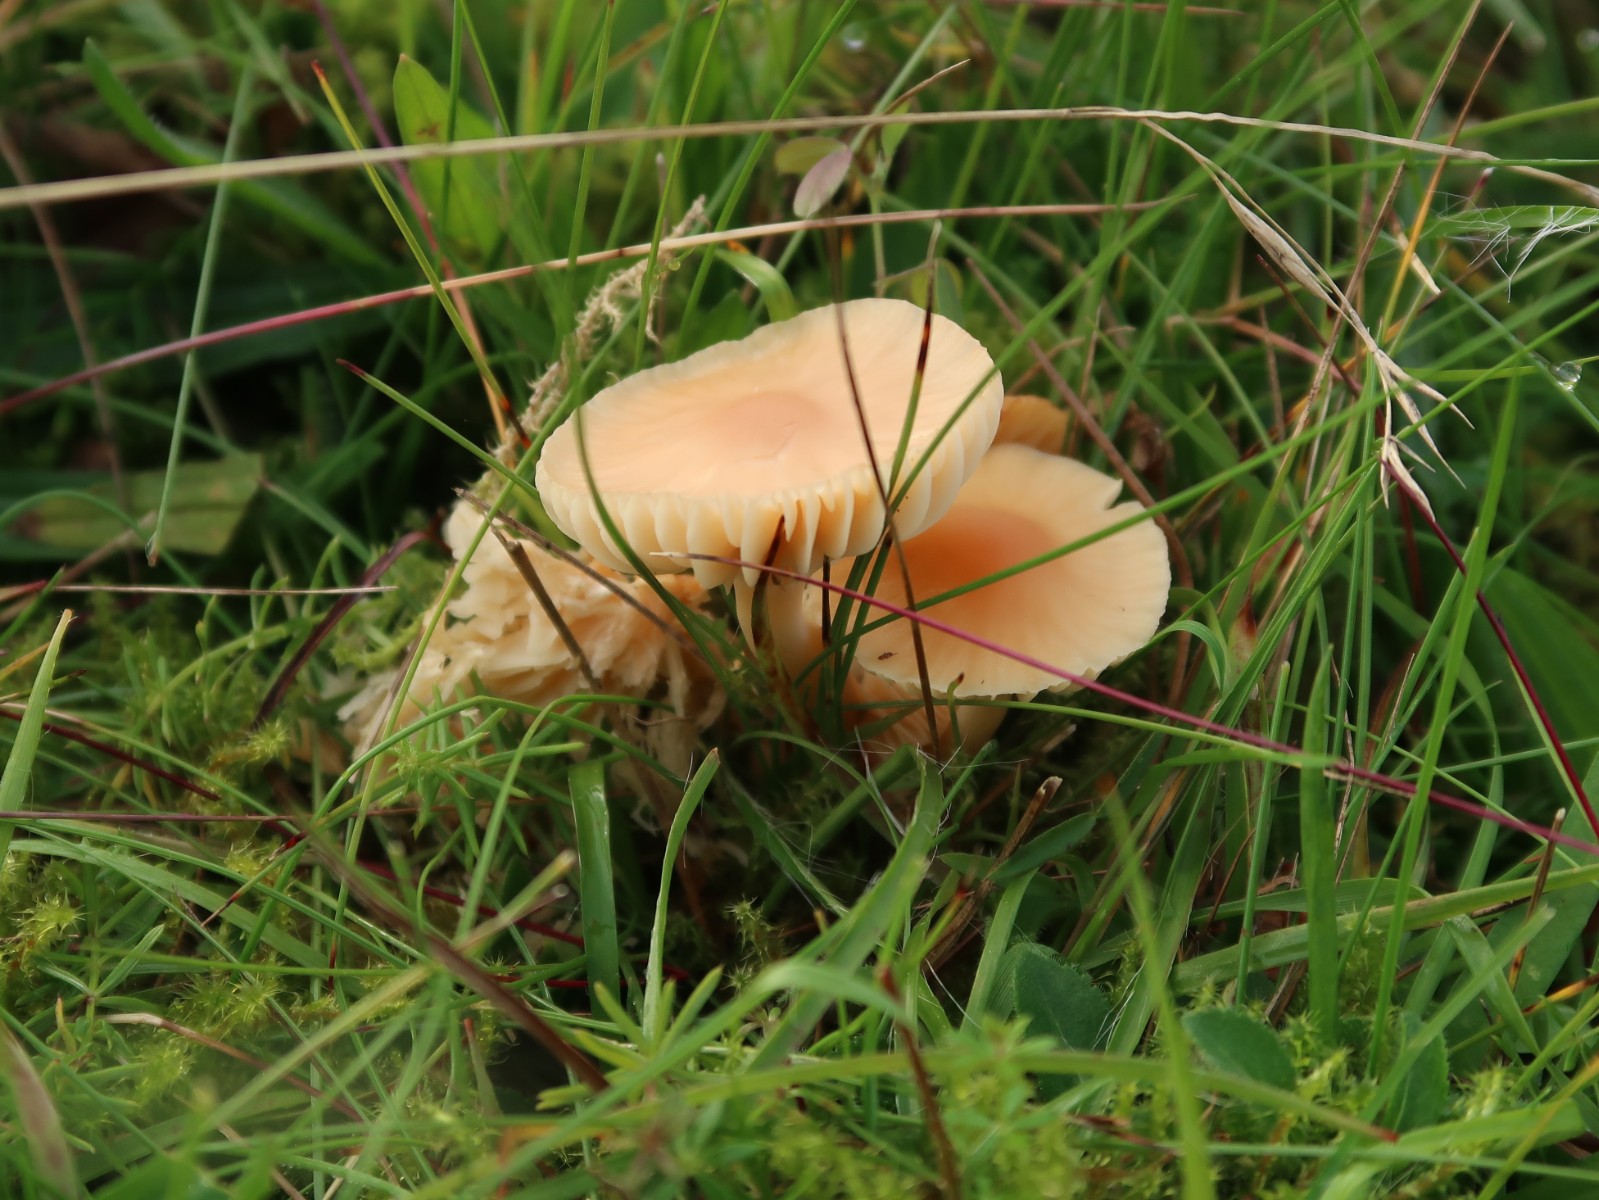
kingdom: Fungi
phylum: Basidiomycota
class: Agaricomycetes
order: Agaricales
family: Hygrophoraceae
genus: Cuphophyllus
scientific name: Cuphophyllus pratensis
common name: eng-vokshat
